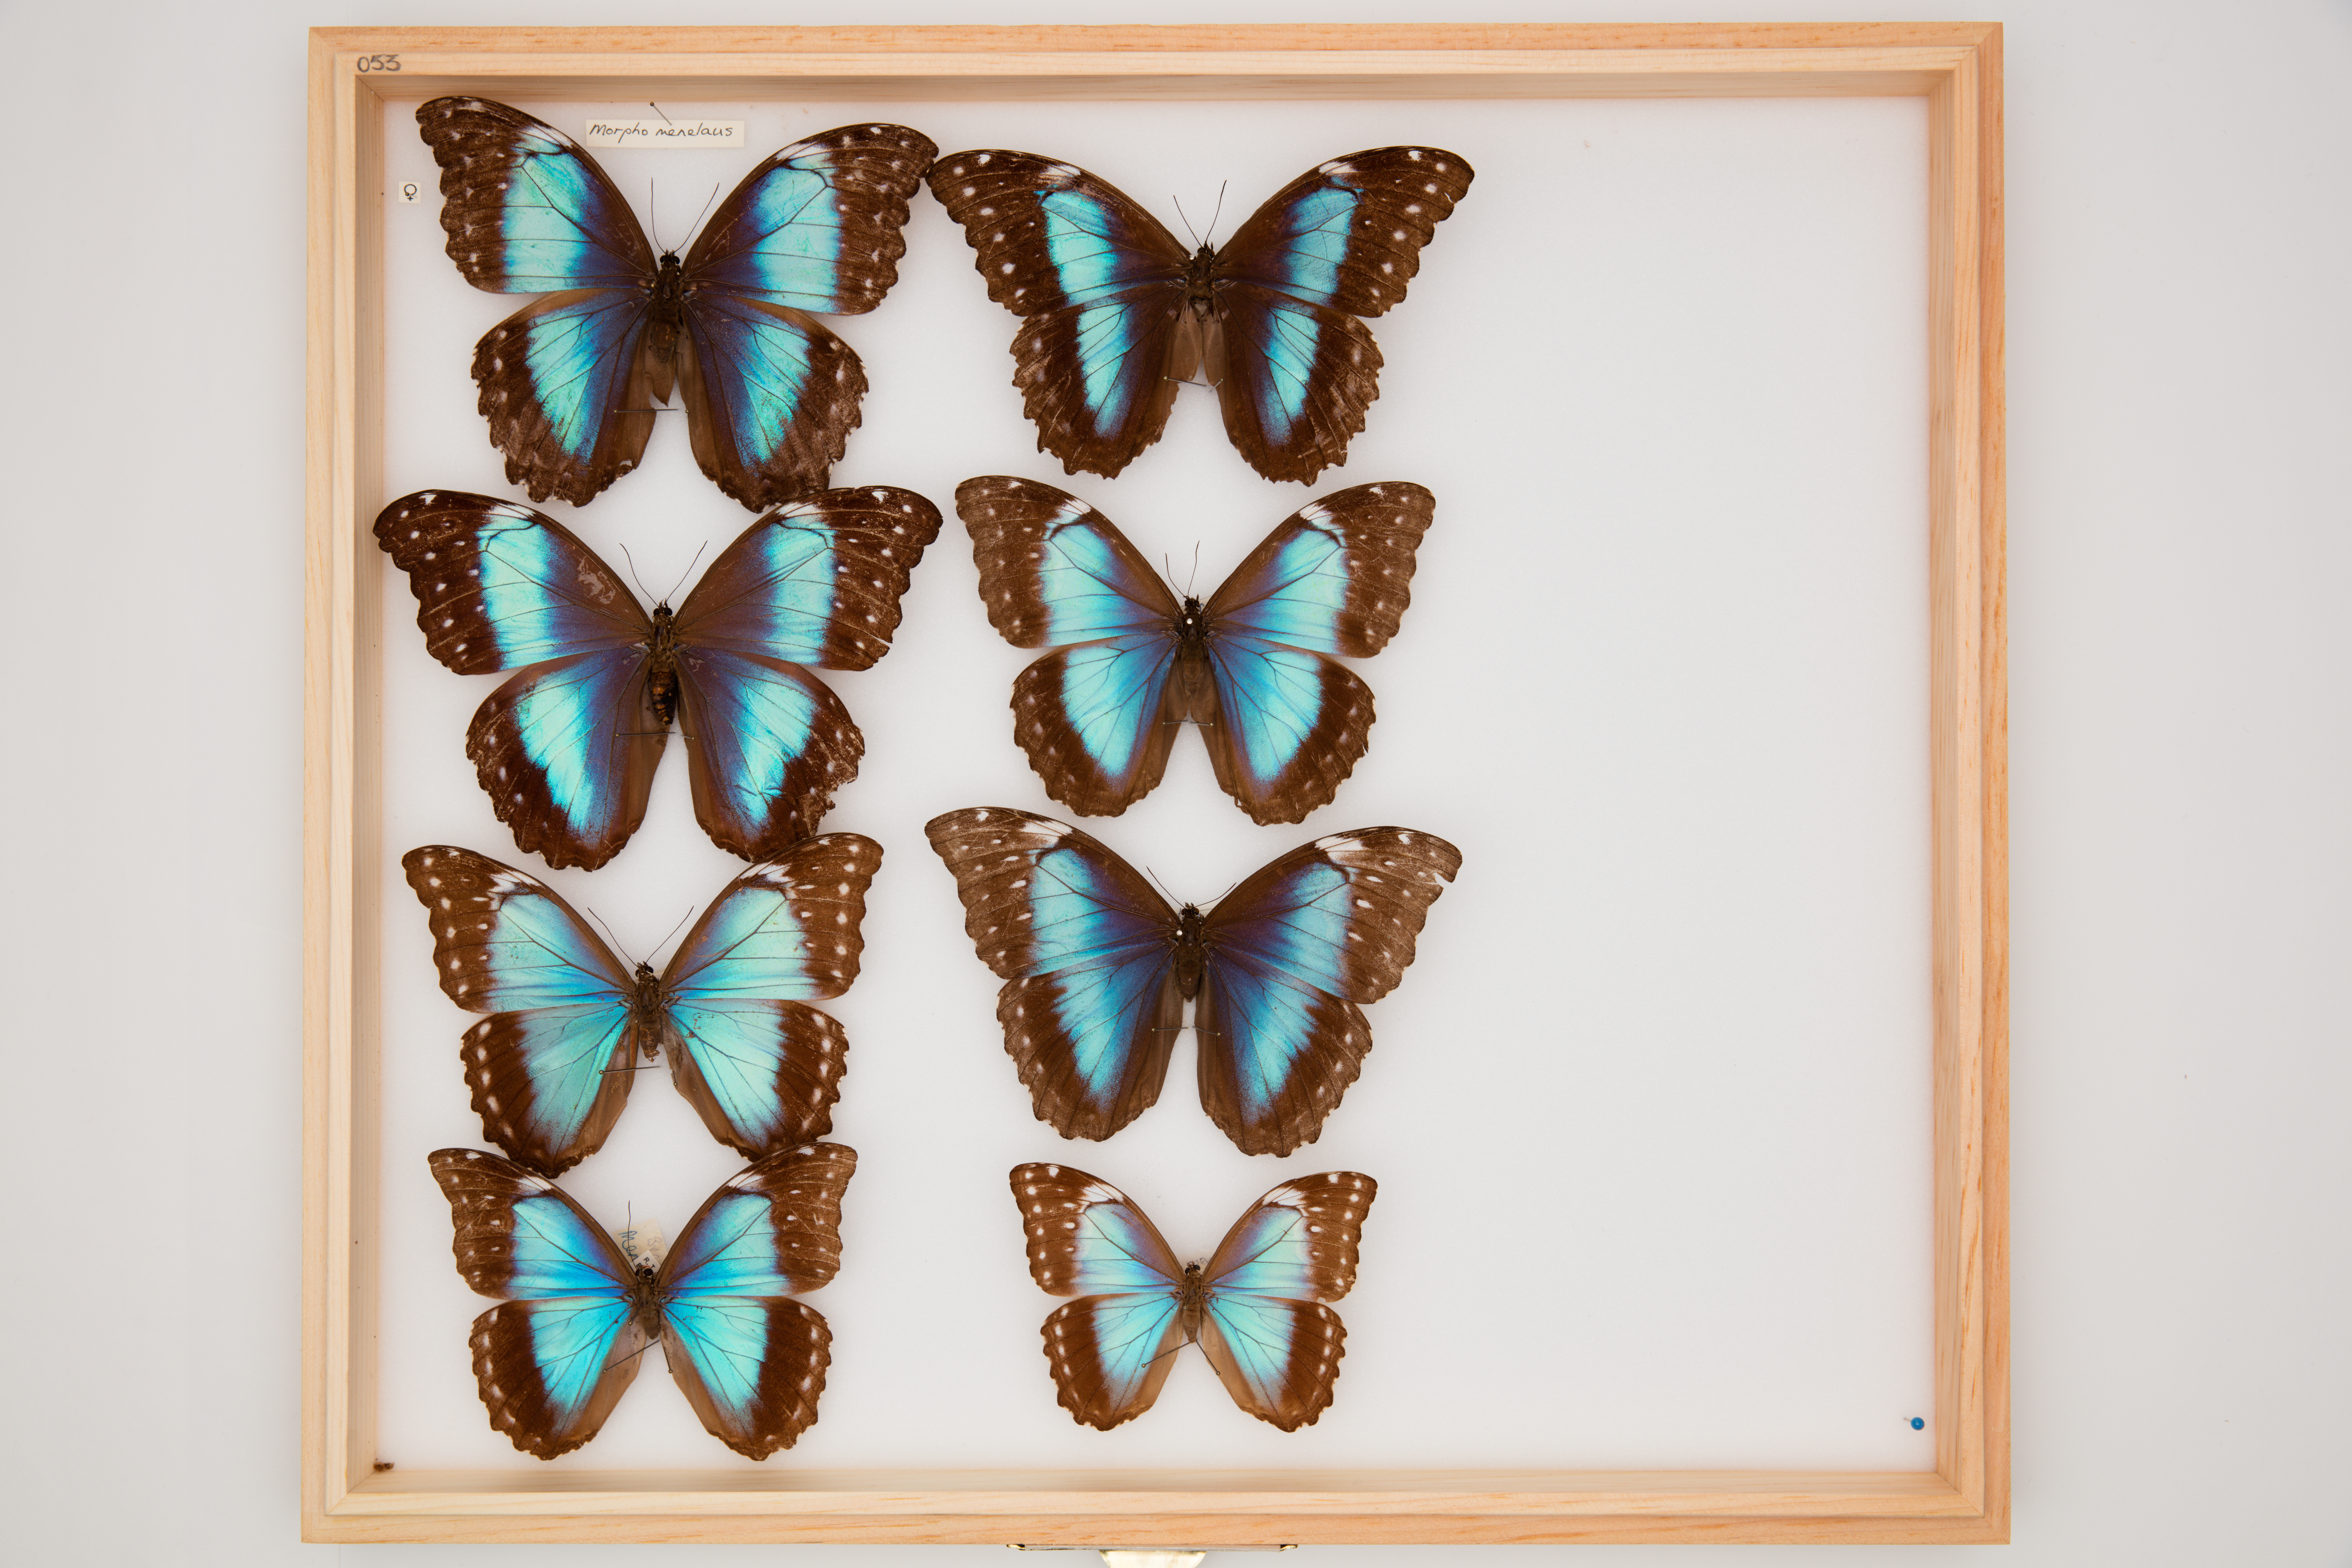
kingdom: Animalia
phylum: Arthropoda
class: Insecta
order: Lepidoptera
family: Nymphalidae
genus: Morpho
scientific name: Morpho menelaus
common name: Menelaus morpho
